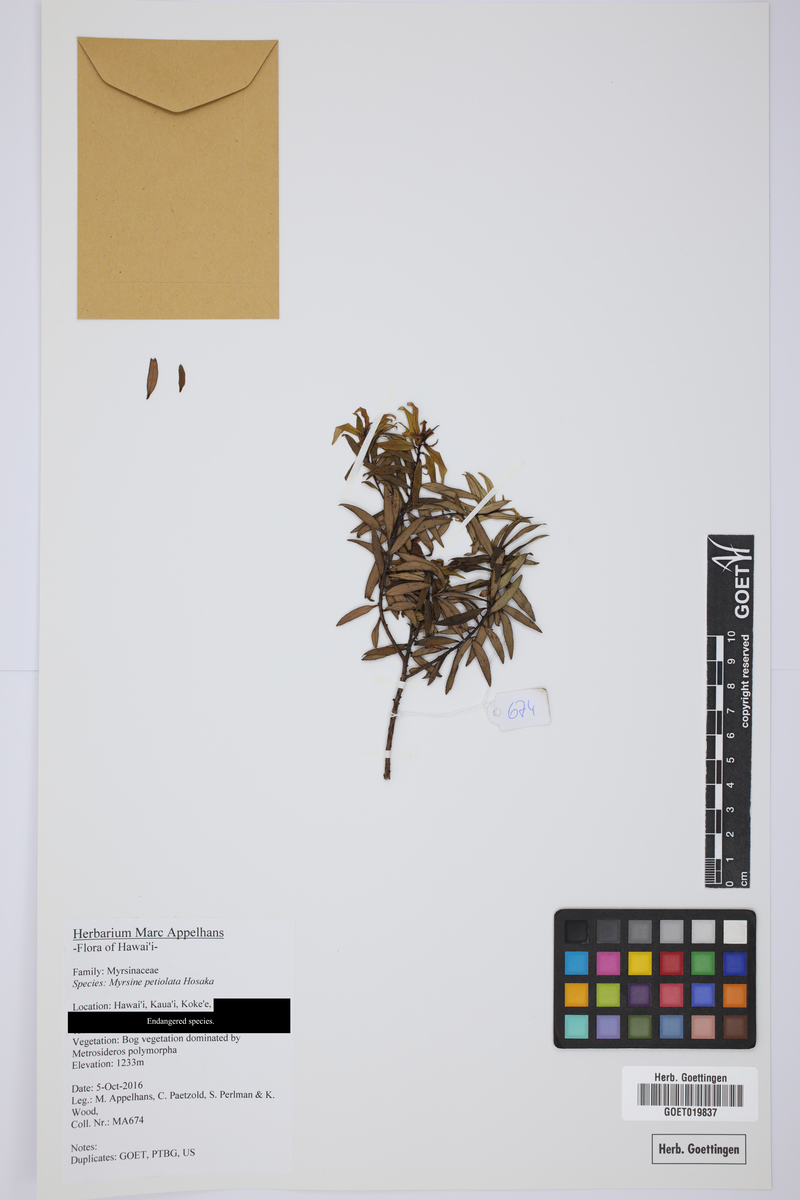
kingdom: Plantae
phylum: Tracheophyta
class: Magnoliopsida
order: Ericales
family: Primulaceae
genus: Myrsine
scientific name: Myrsine petiolata
